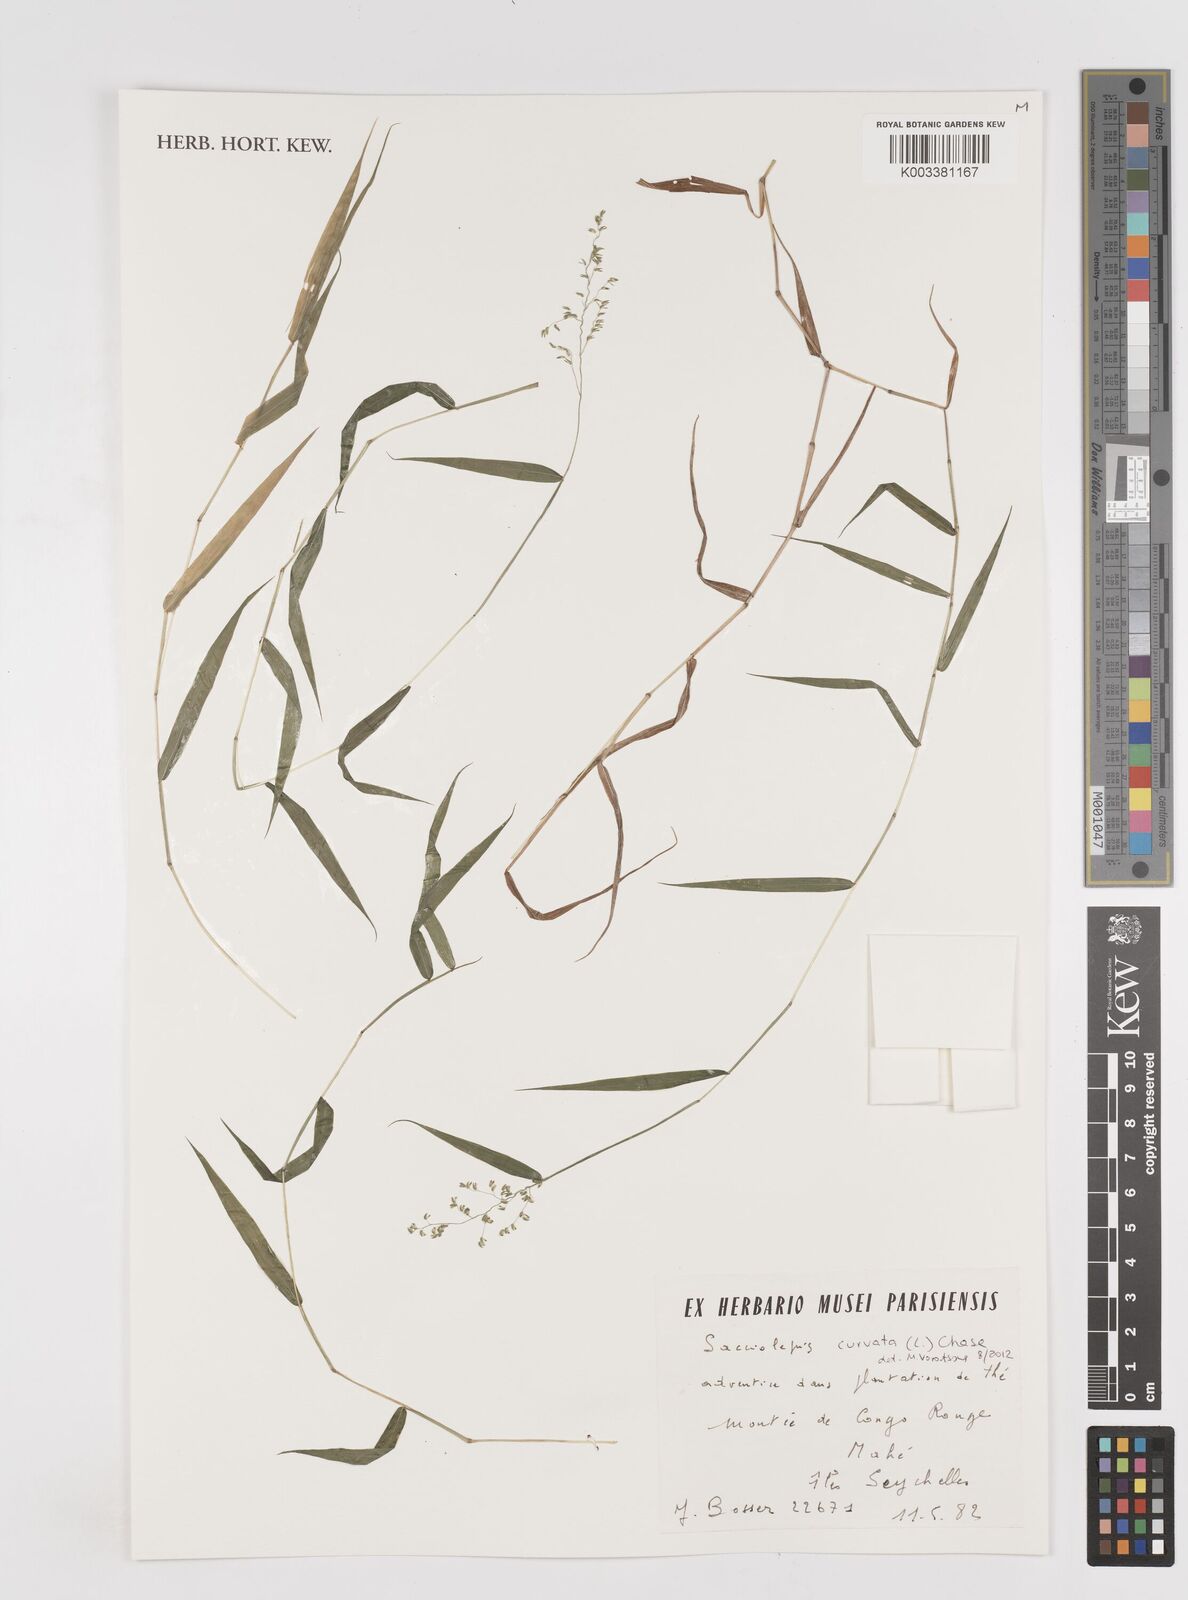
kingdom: Plantae
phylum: Tracheophyta
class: Liliopsida
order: Poales
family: Poaceae
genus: Sacciolepis
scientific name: Sacciolepis curvata
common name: Forest hood grass
